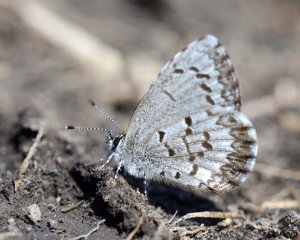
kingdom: Animalia
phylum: Arthropoda
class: Insecta
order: Lepidoptera
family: Lycaenidae
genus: Celastrina
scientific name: Celastrina lucia
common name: Northern Spring Azure
